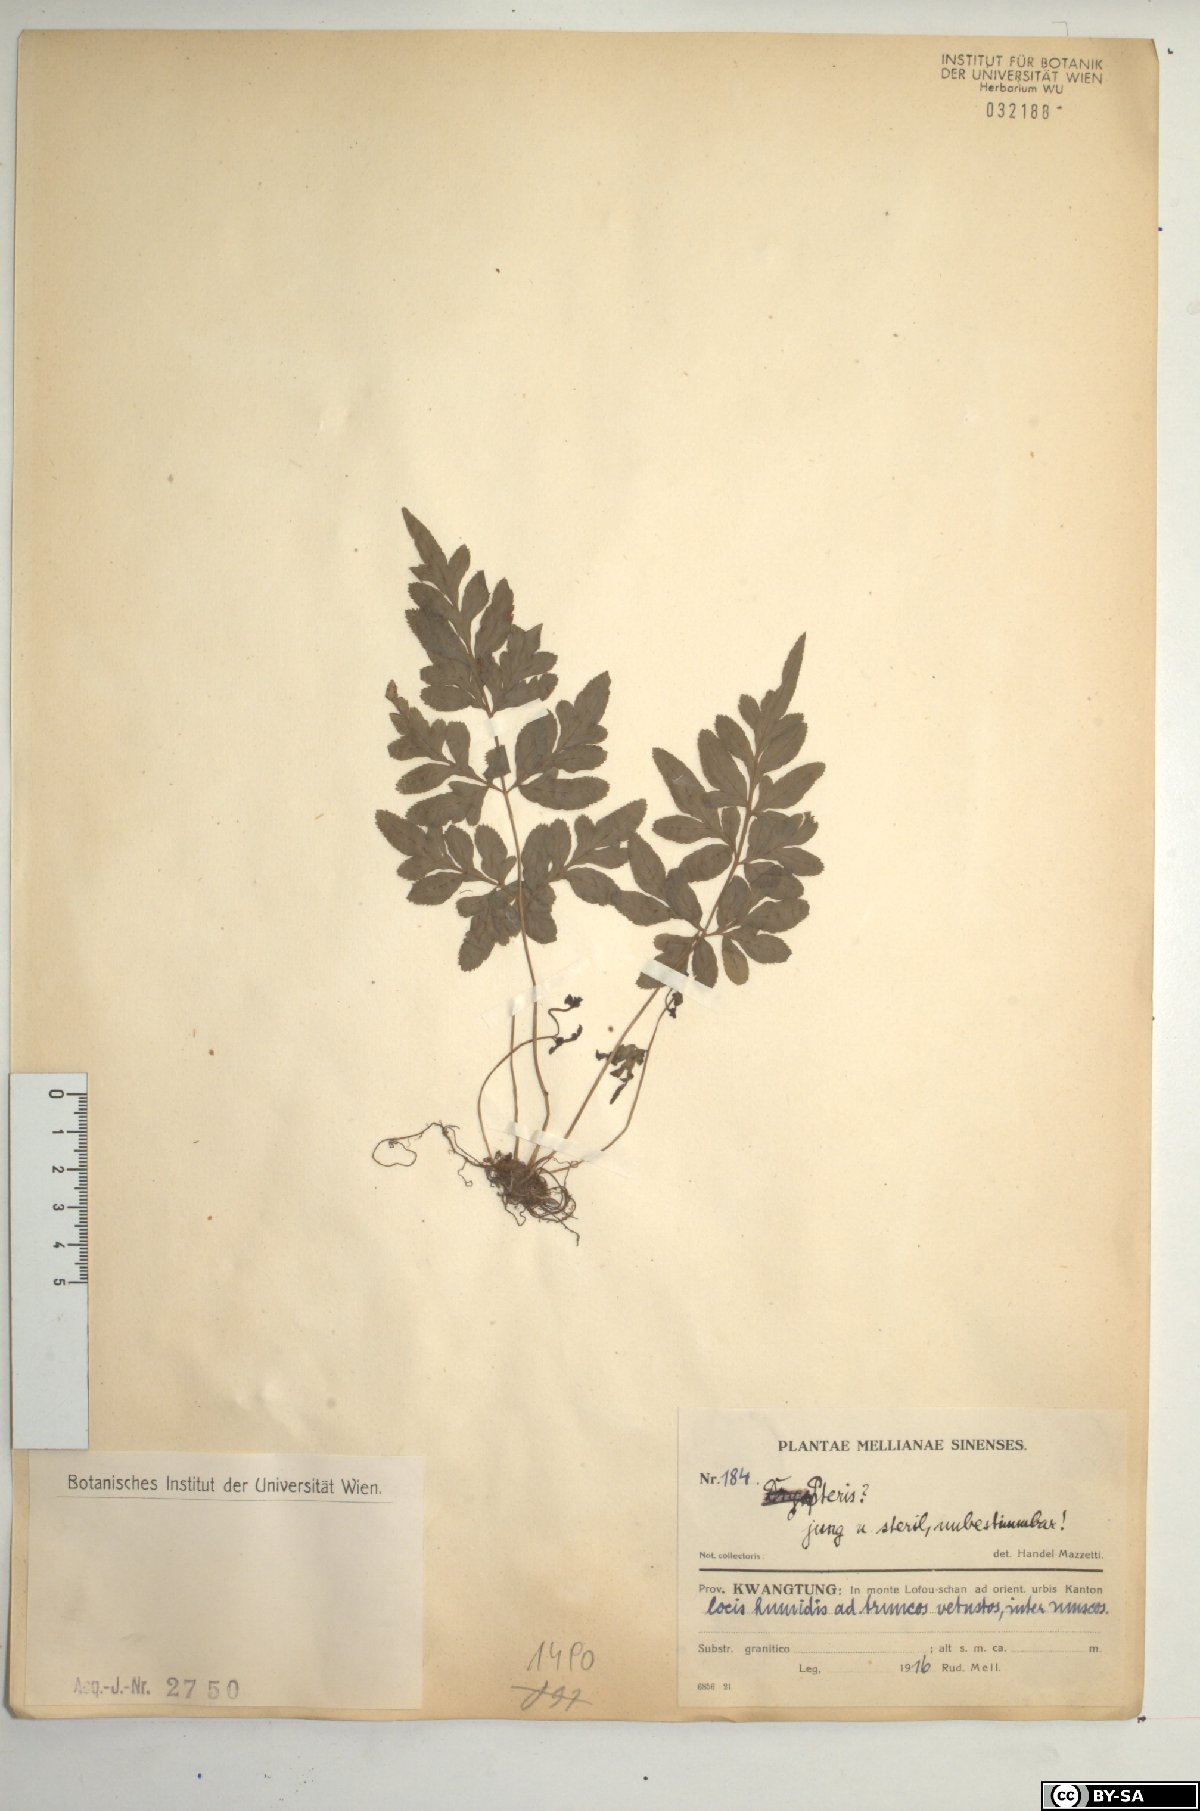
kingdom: Plantae
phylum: Tracheophyta
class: Polypodiopsida
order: Polypodiales
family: Pteridaceae
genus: Pteris
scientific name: Pteris
